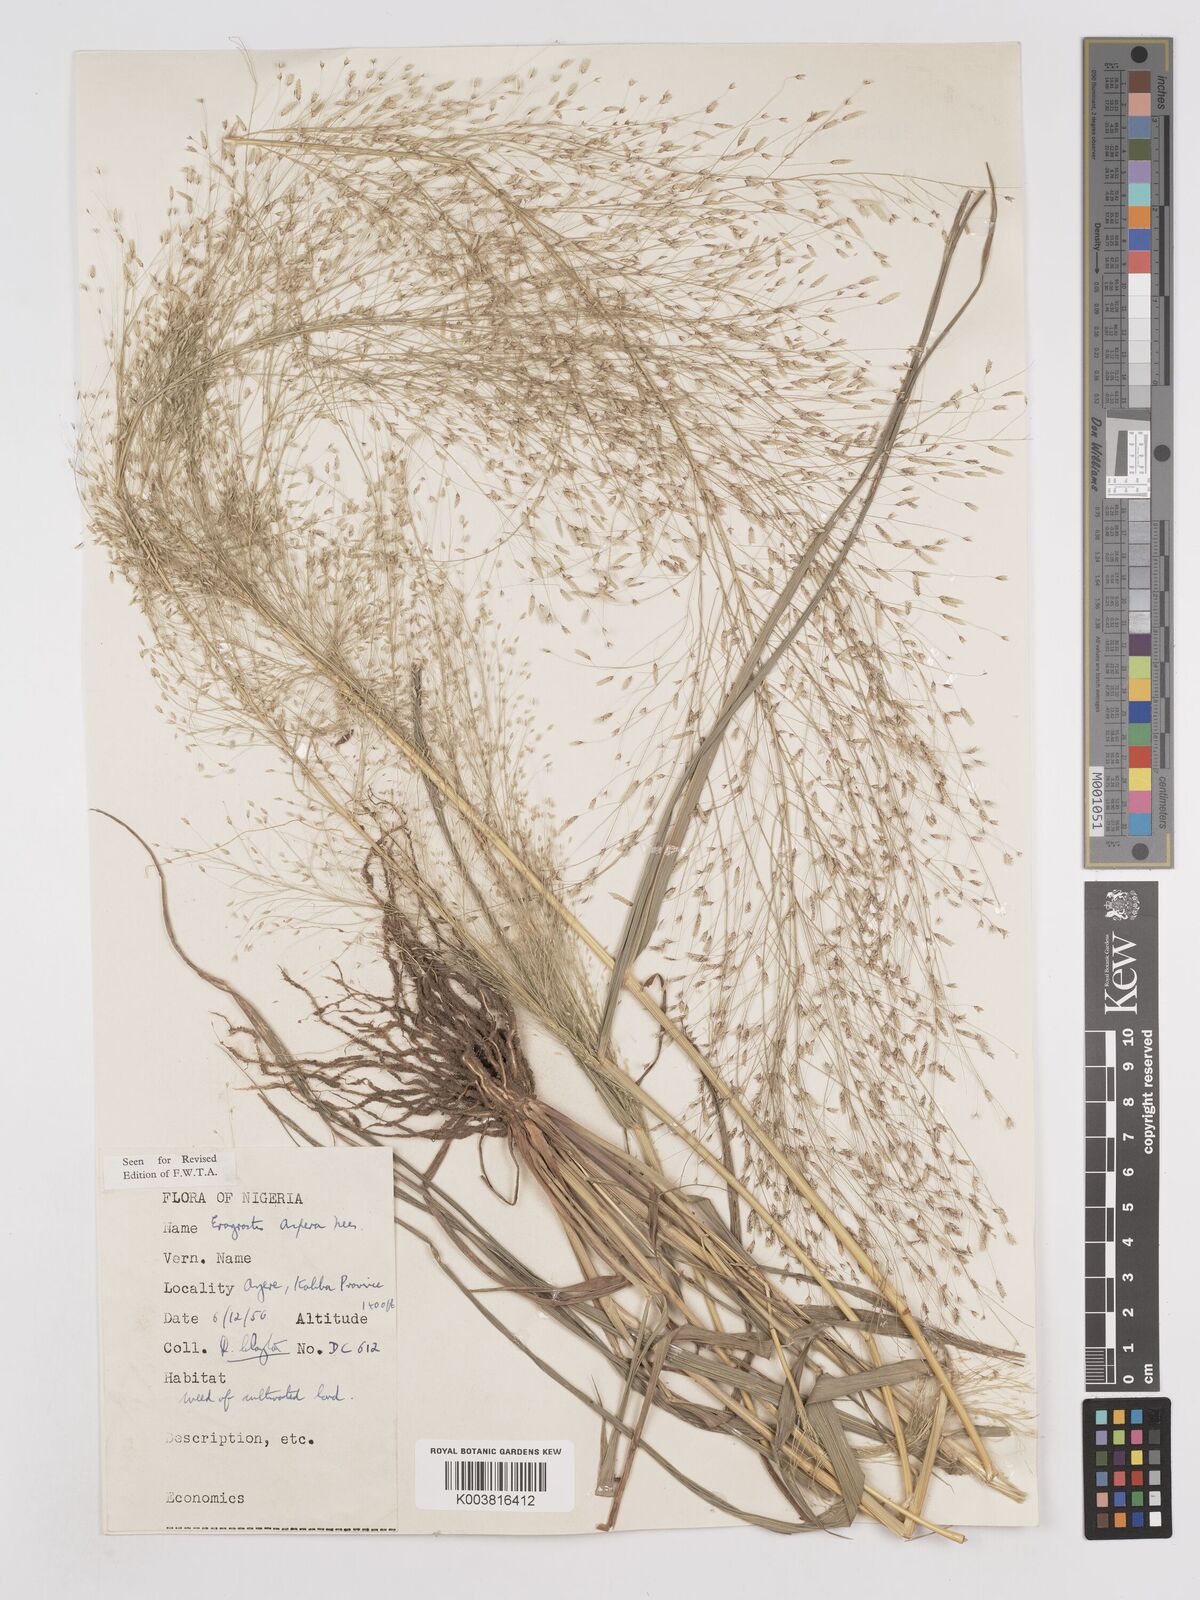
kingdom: Plantae
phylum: Tracheophyta
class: Liliopsida
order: Poales
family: Poaceae
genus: Eragrostis
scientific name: Eragrostis aspera
